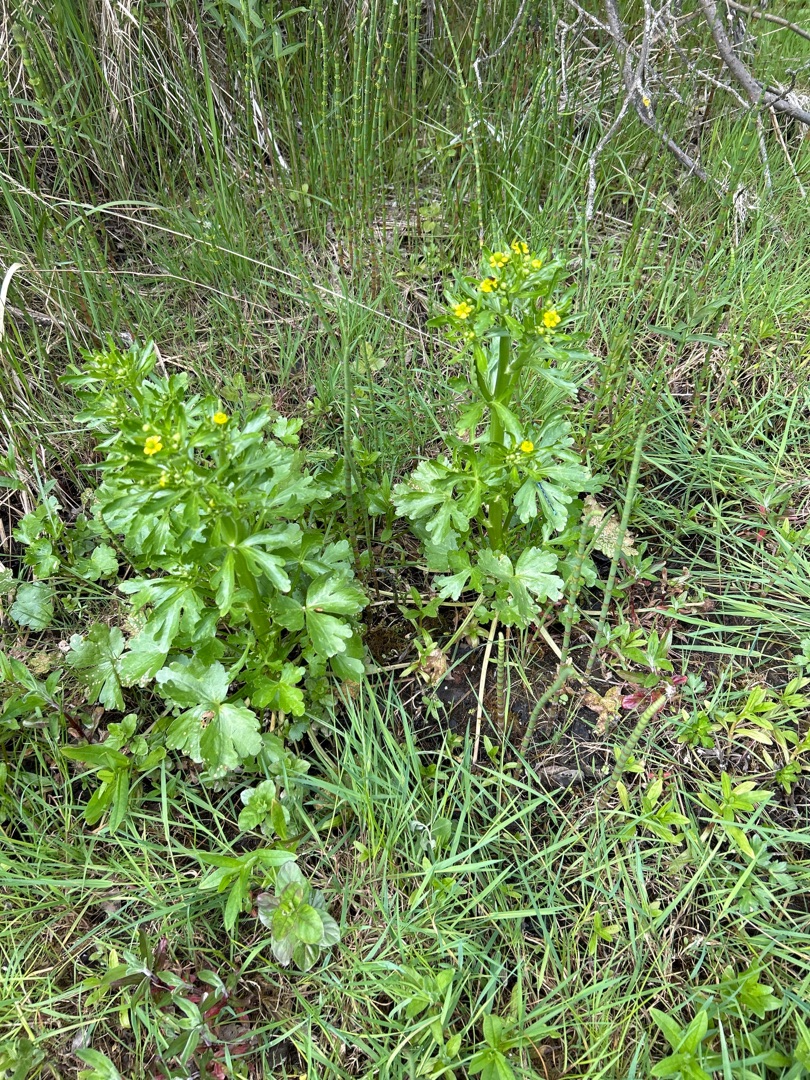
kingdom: Plantae
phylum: Tracheophyta
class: Magnoliopsida
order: Ranunculales
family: Ranunculaceae
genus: Ranunculus
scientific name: Ranunculus sceleratus
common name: Tigger-ranunkel
